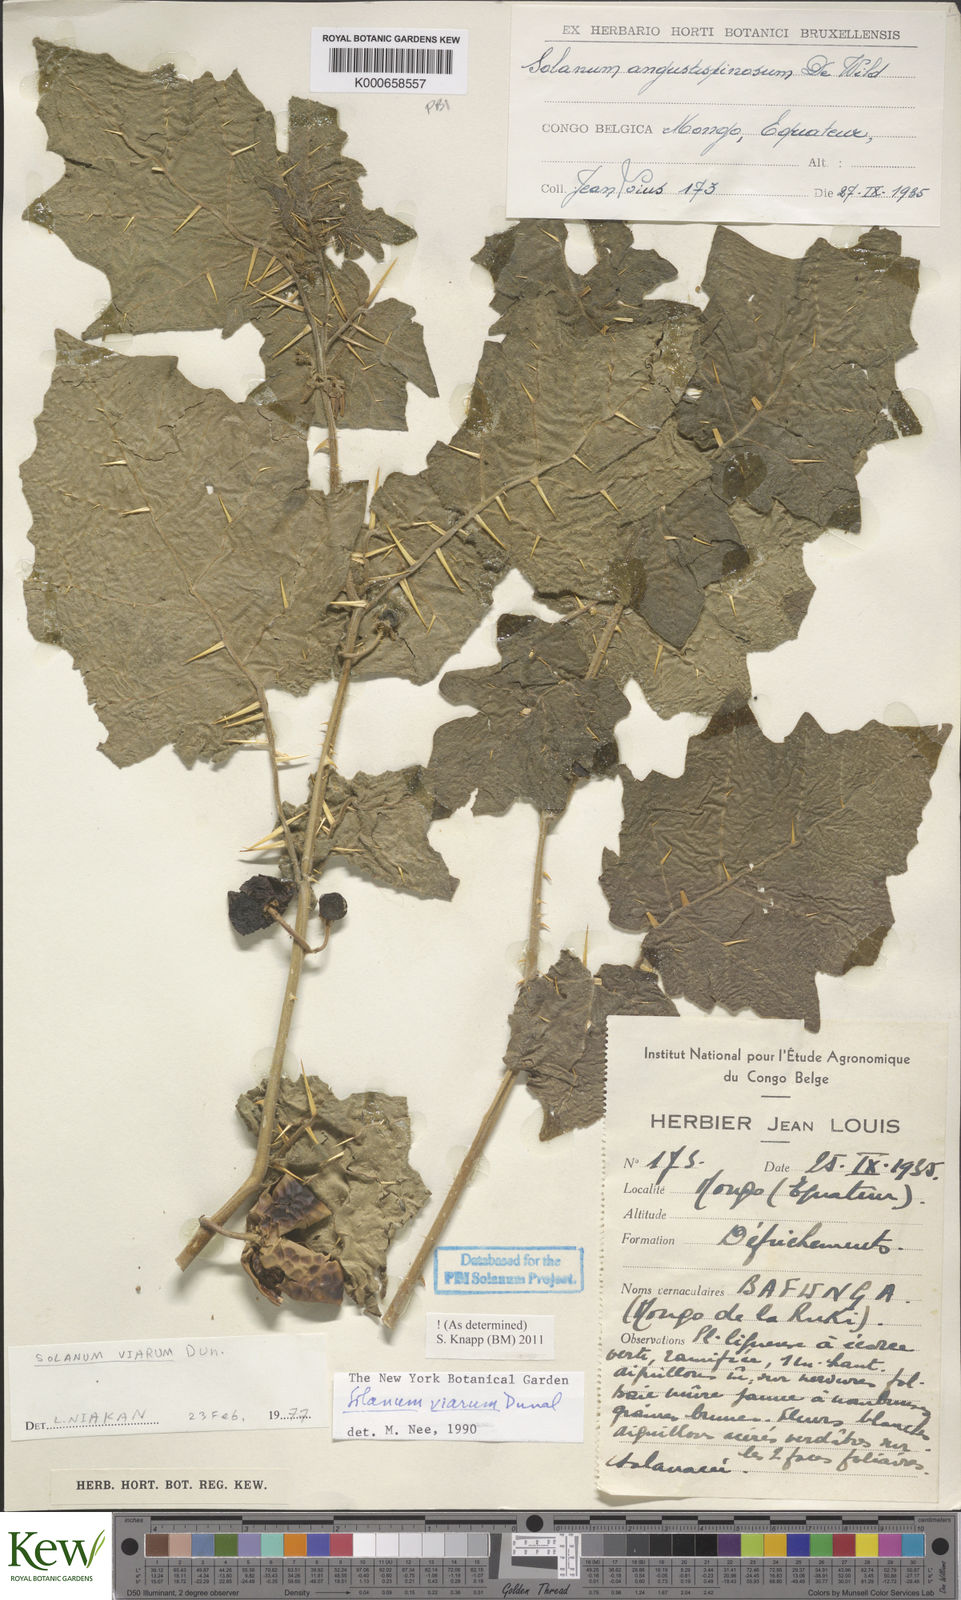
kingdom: Plantae
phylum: Tracheophyta
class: Magnoliopsida
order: Solanales
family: Solanaceae
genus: Solanum
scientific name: Solanum viarum
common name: Tropical soda apple
